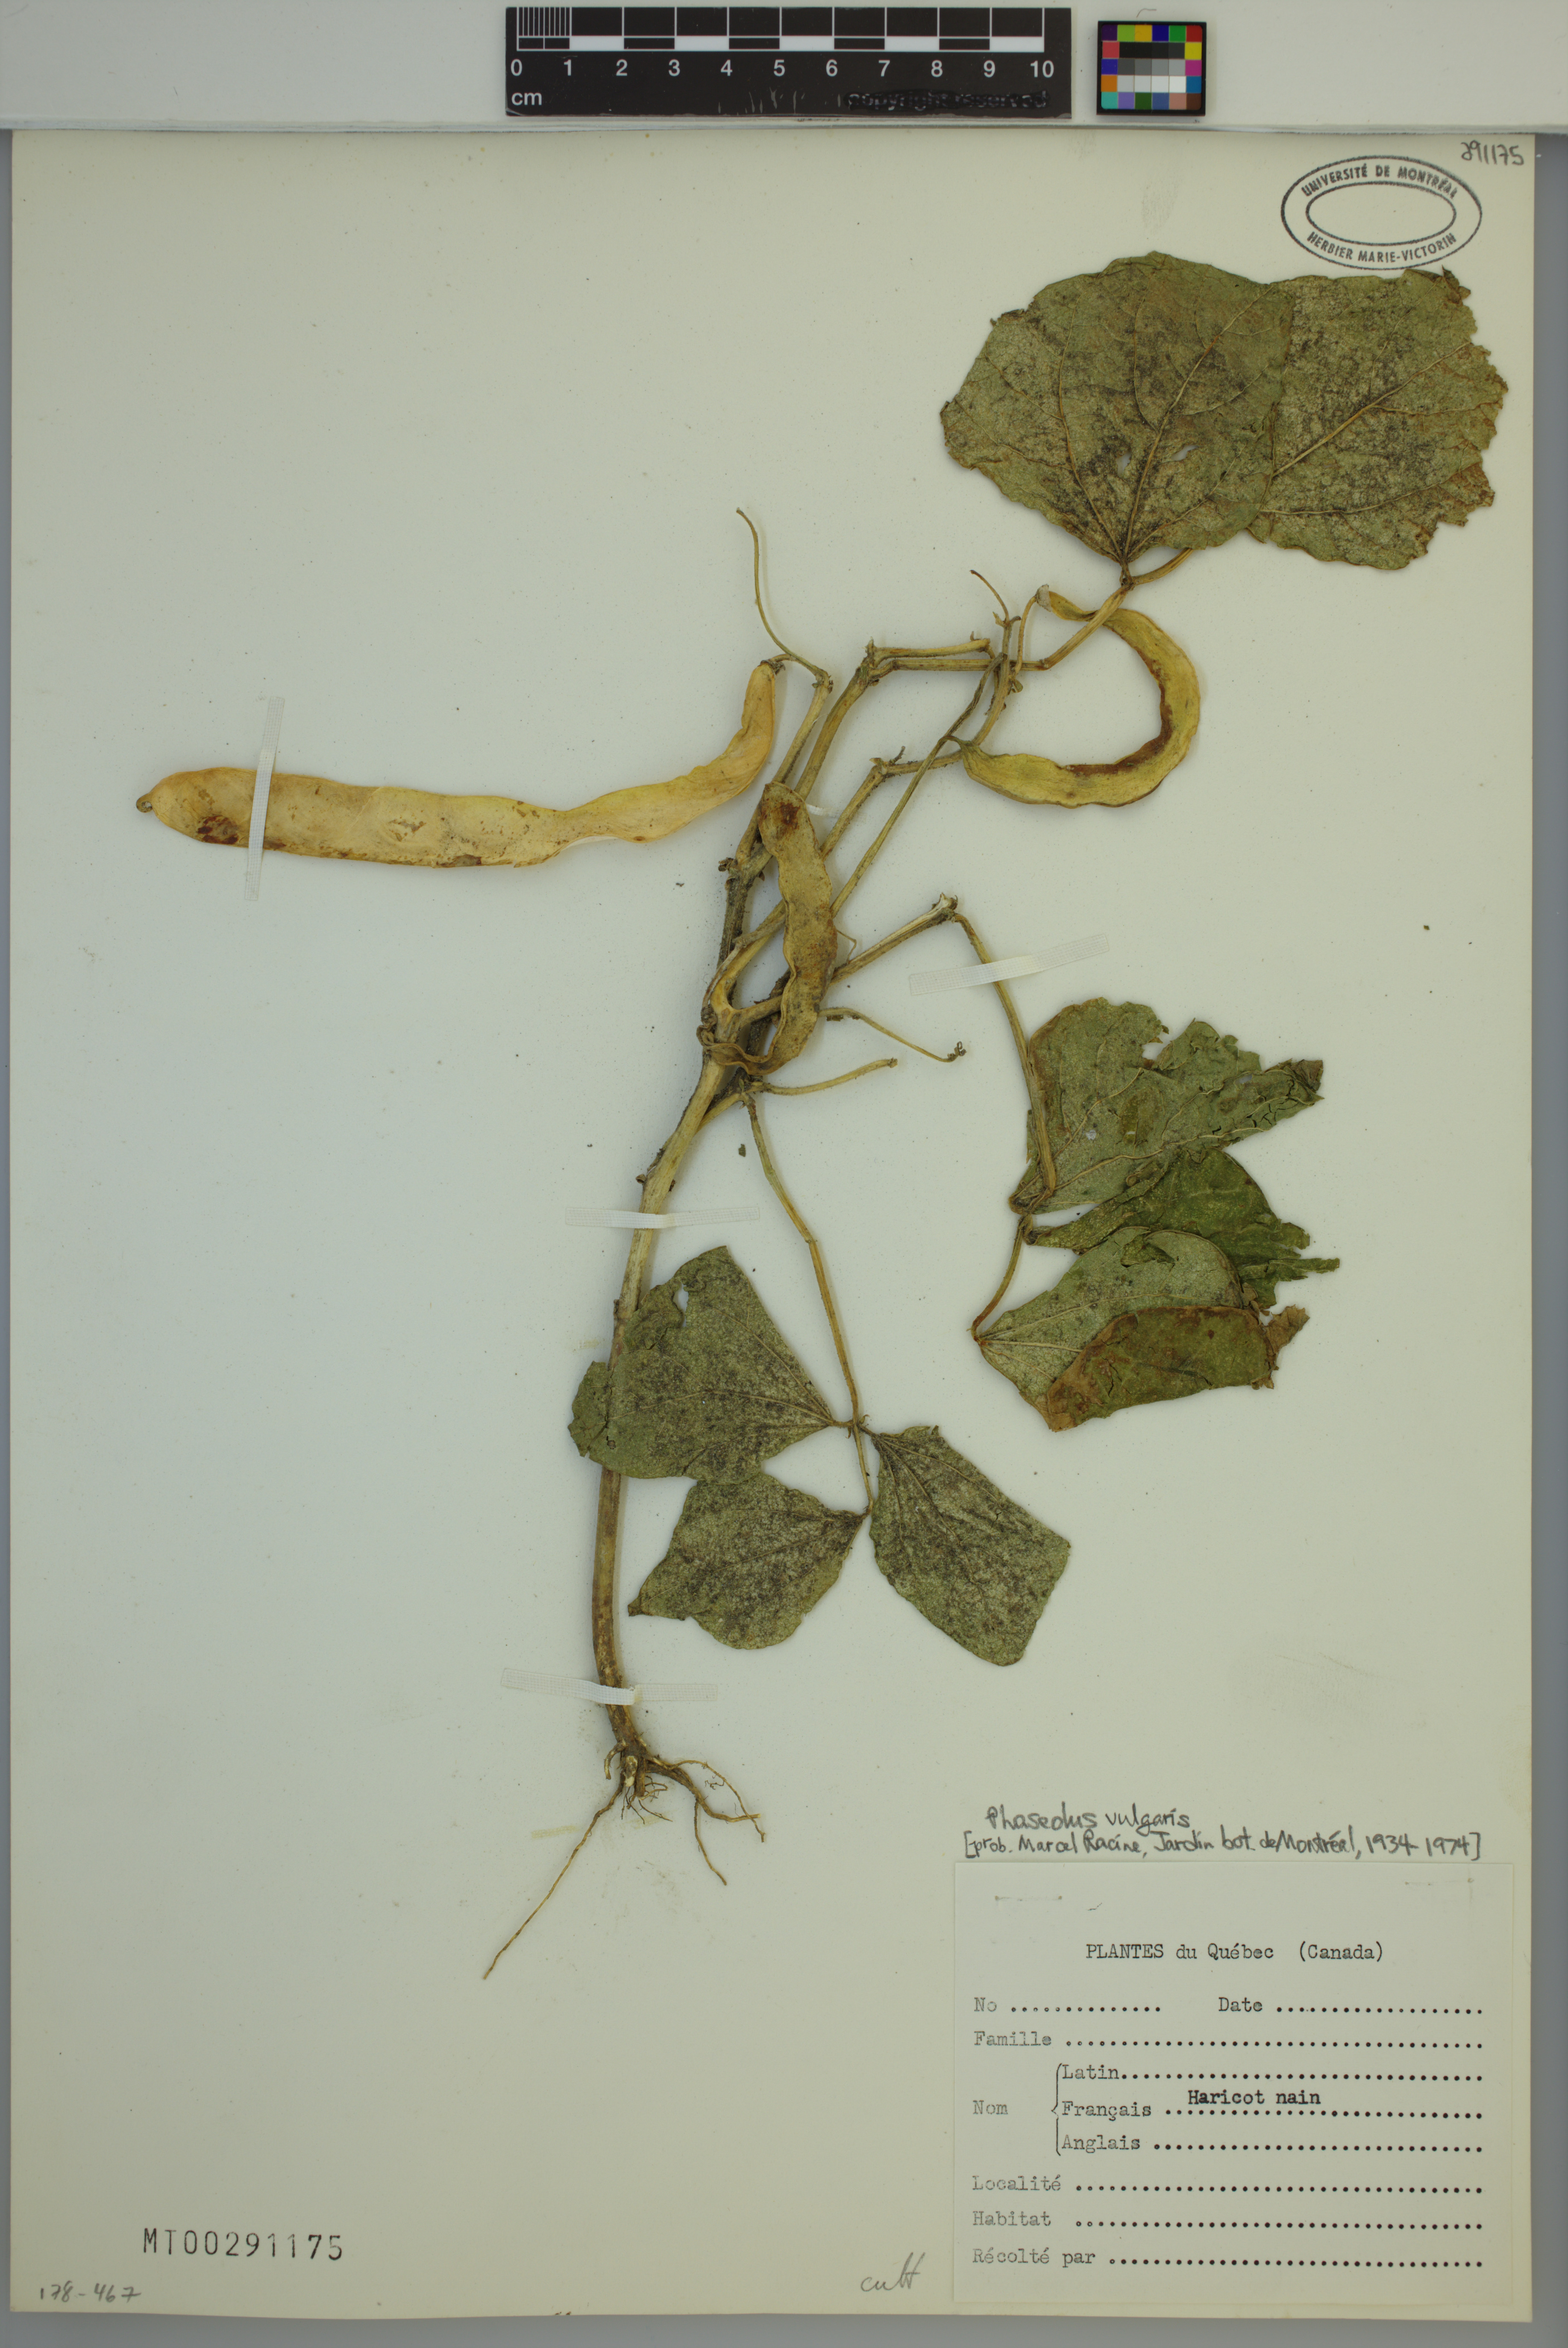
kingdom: Plantae
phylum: Tracheophyta
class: Magnoliopsida
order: Fabales
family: Fabaceae
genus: Phaseolus
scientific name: Phaseolus vulgaris
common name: Bean
